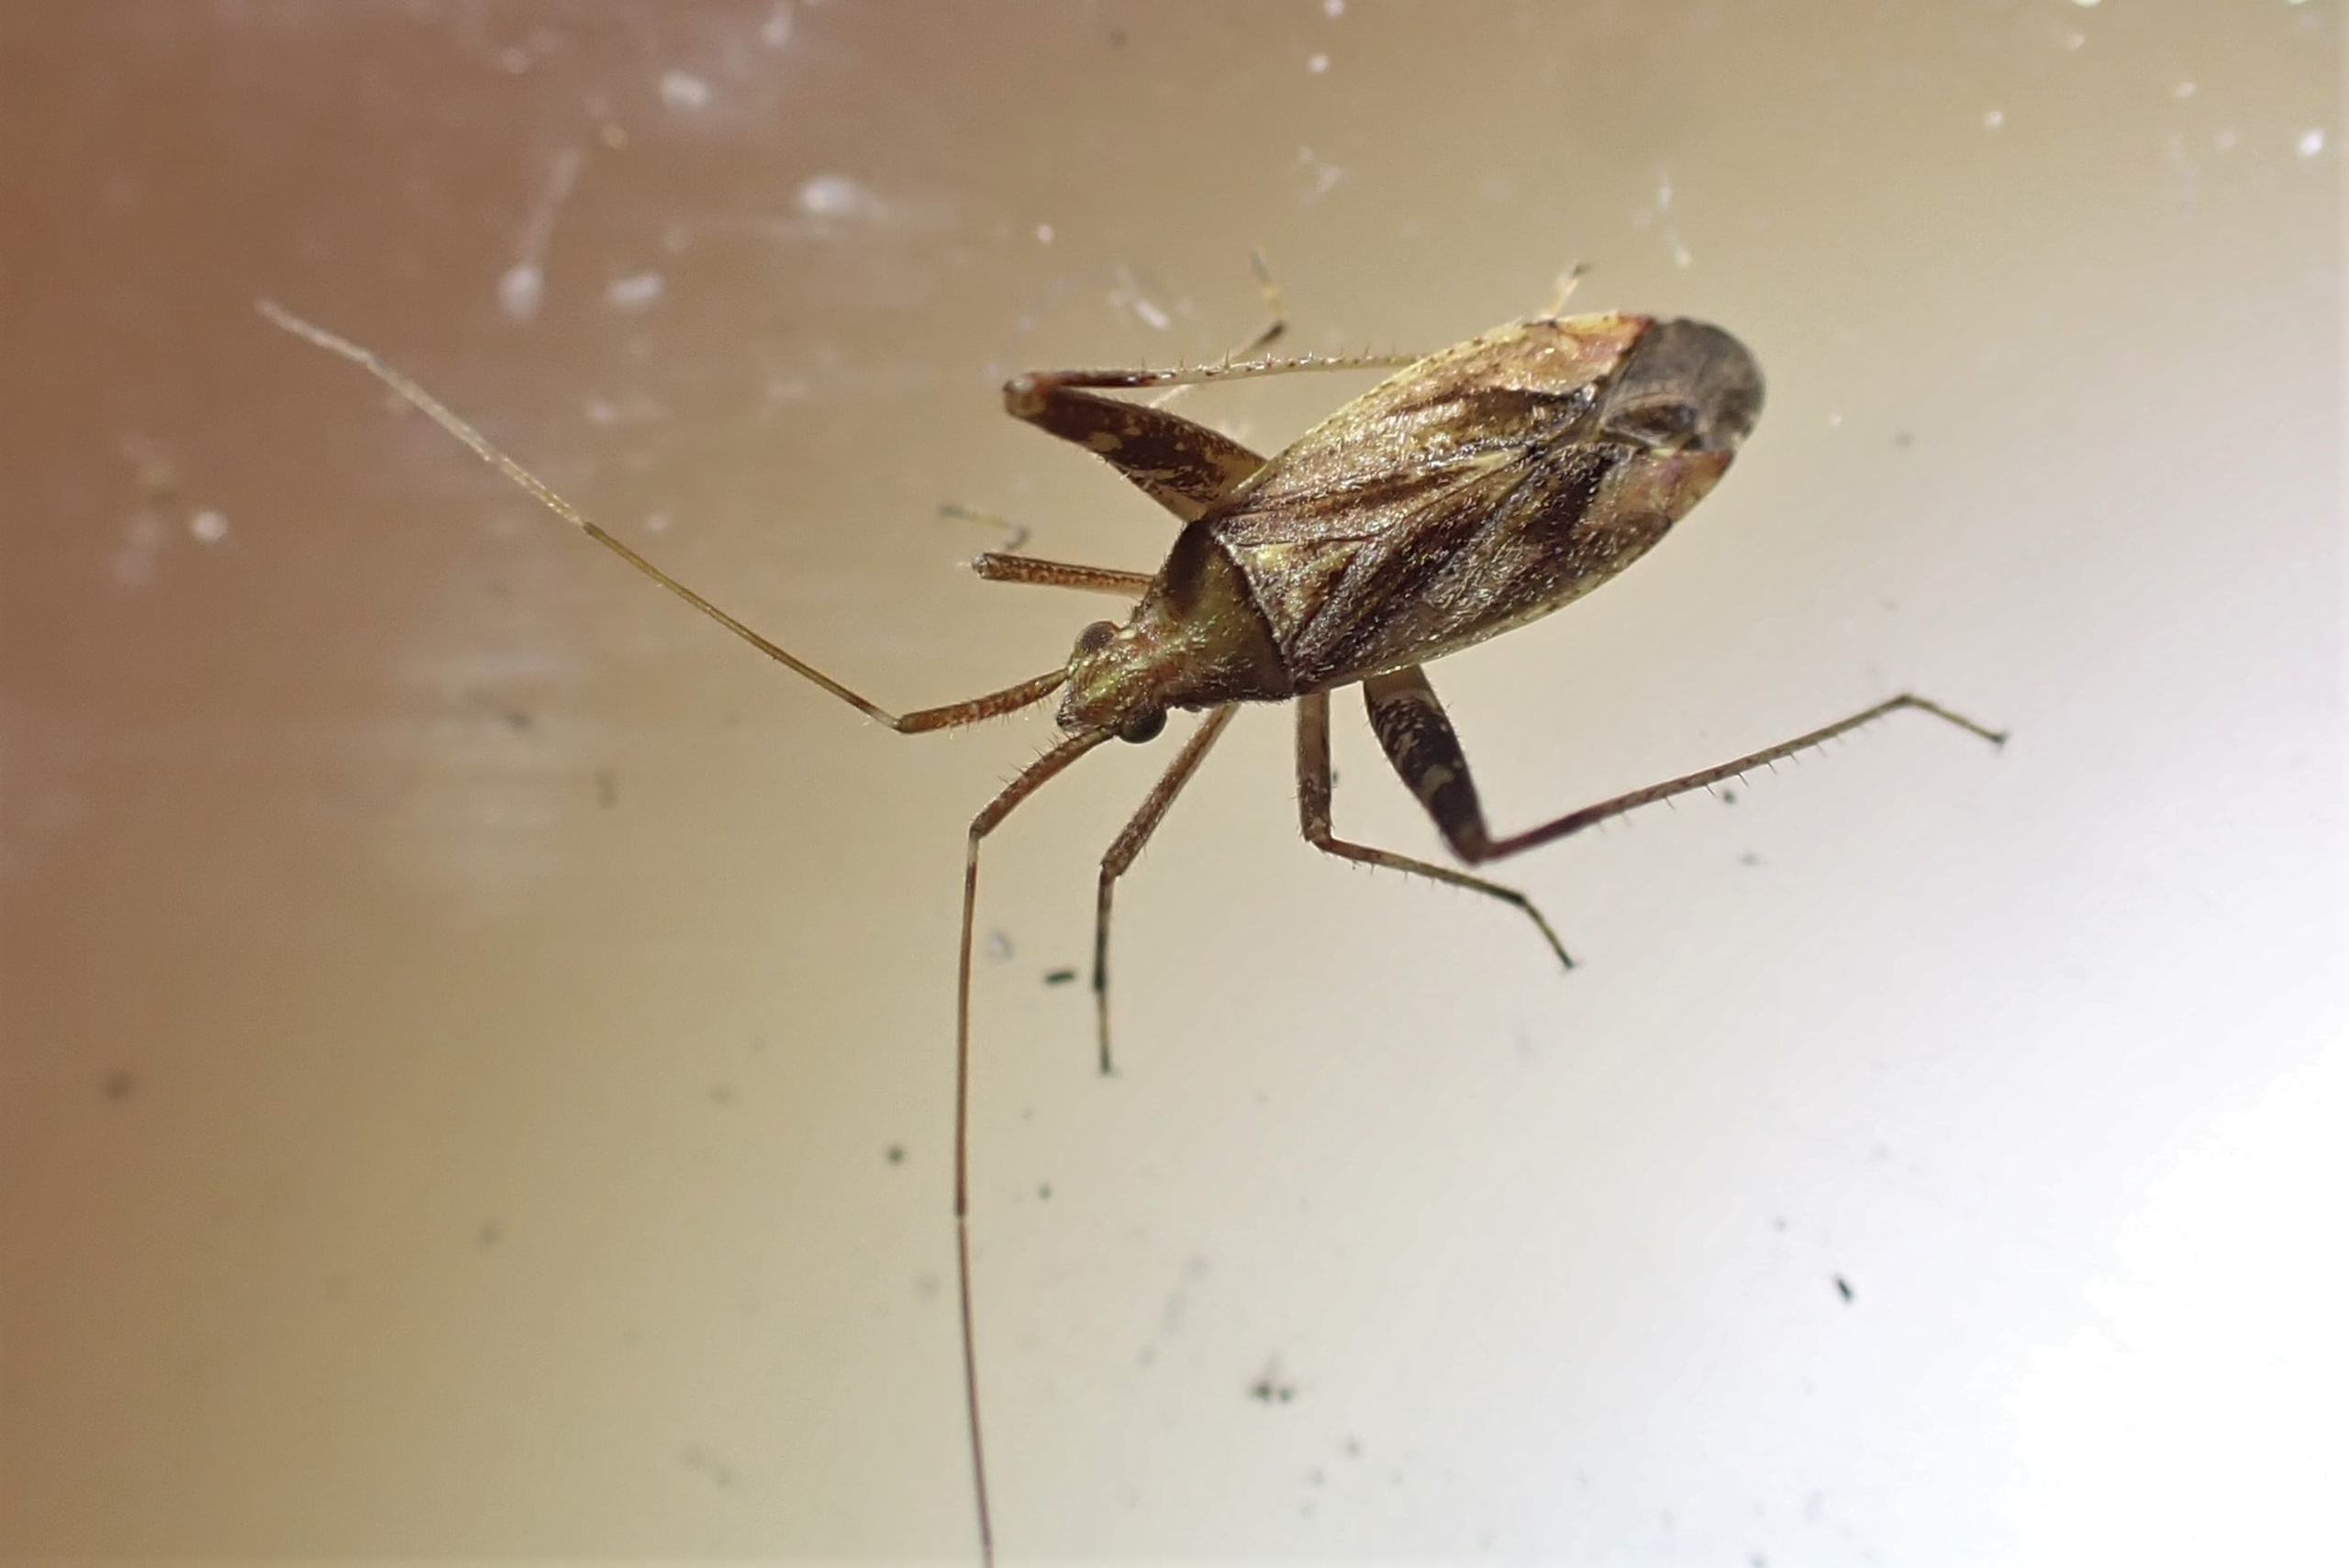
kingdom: Animalia
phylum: Arthropoda
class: Insecta
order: Hemiptera
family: Miridae
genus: Phytocoris
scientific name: Phytocoris varipes
